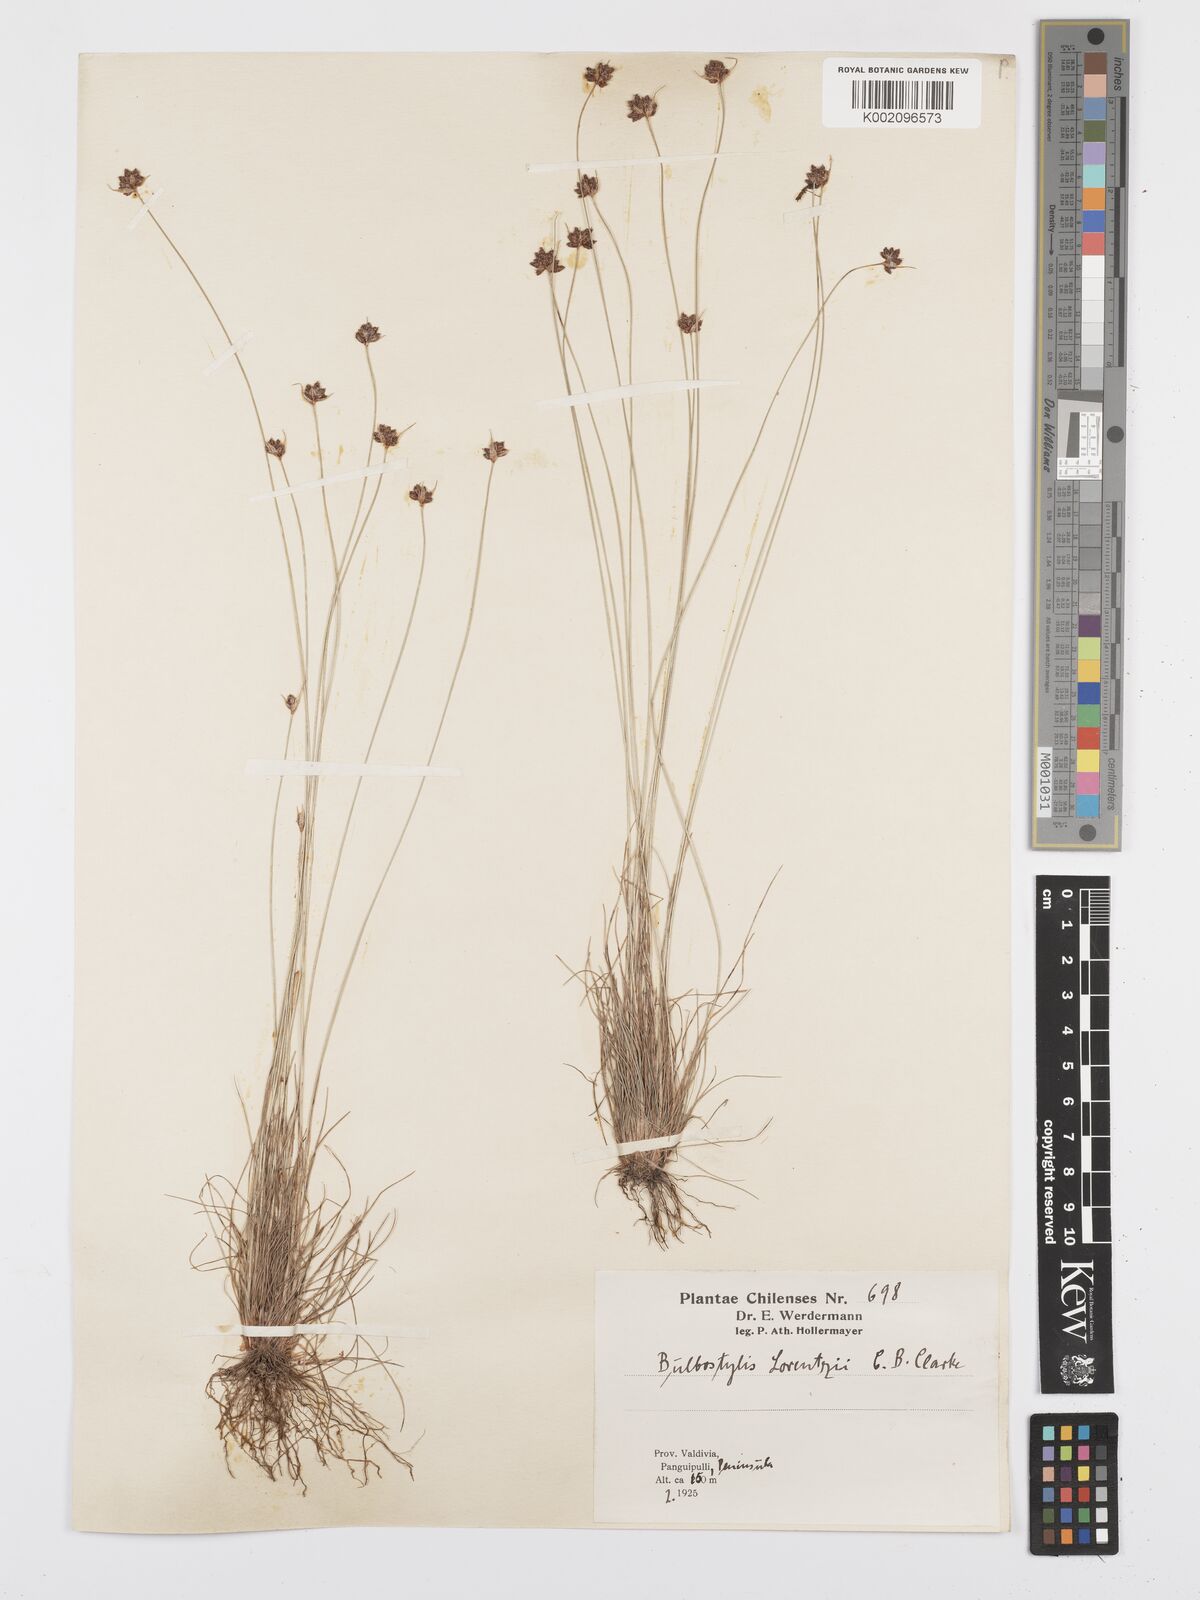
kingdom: Plantae
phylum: Tracheophyta
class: Liliopsida
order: Poales
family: Cyperaceae
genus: Bulbostylis
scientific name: Bulbostylis
